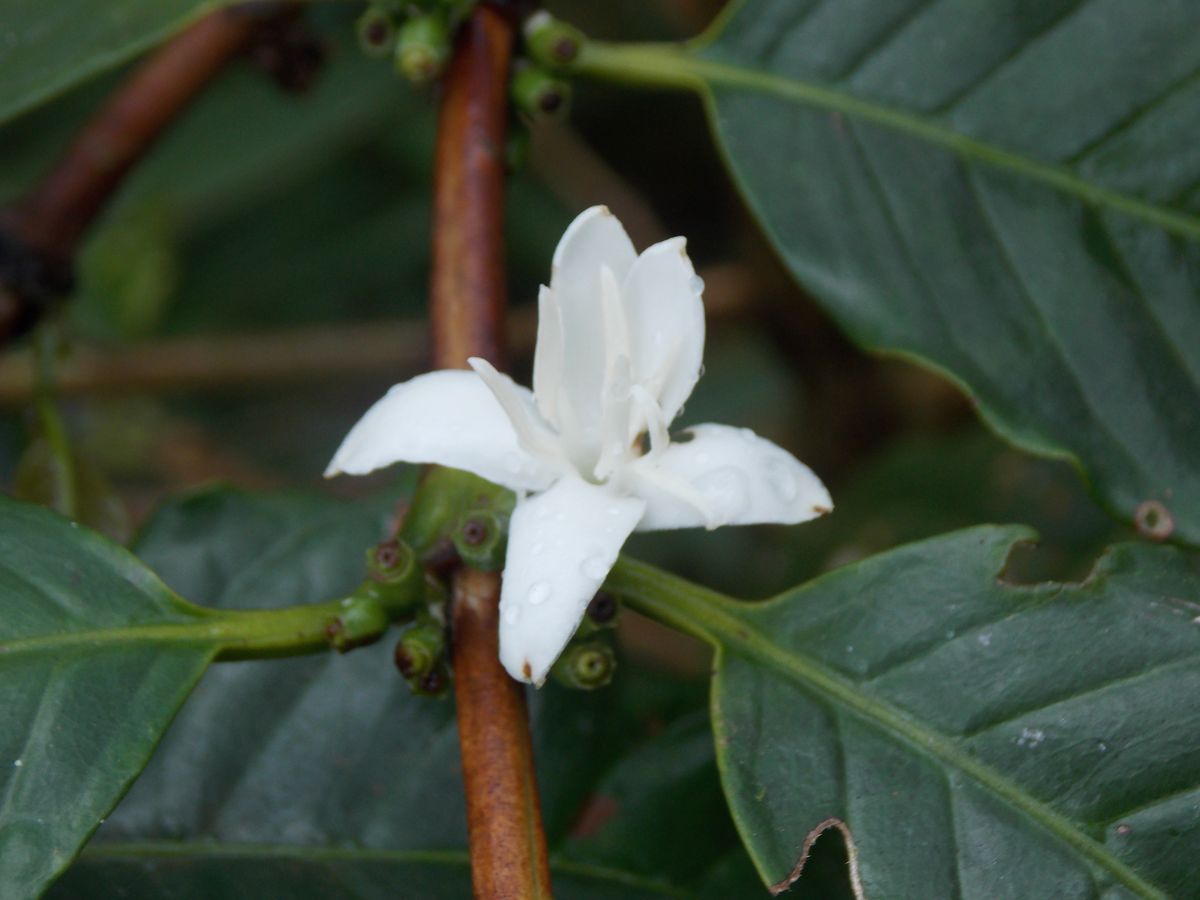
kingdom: Plantae
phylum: Tracheophyta
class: Magnoliopsida
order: Gentianales
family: Rubiaceae
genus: Coffea
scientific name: Coffea arabica
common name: Coffee
